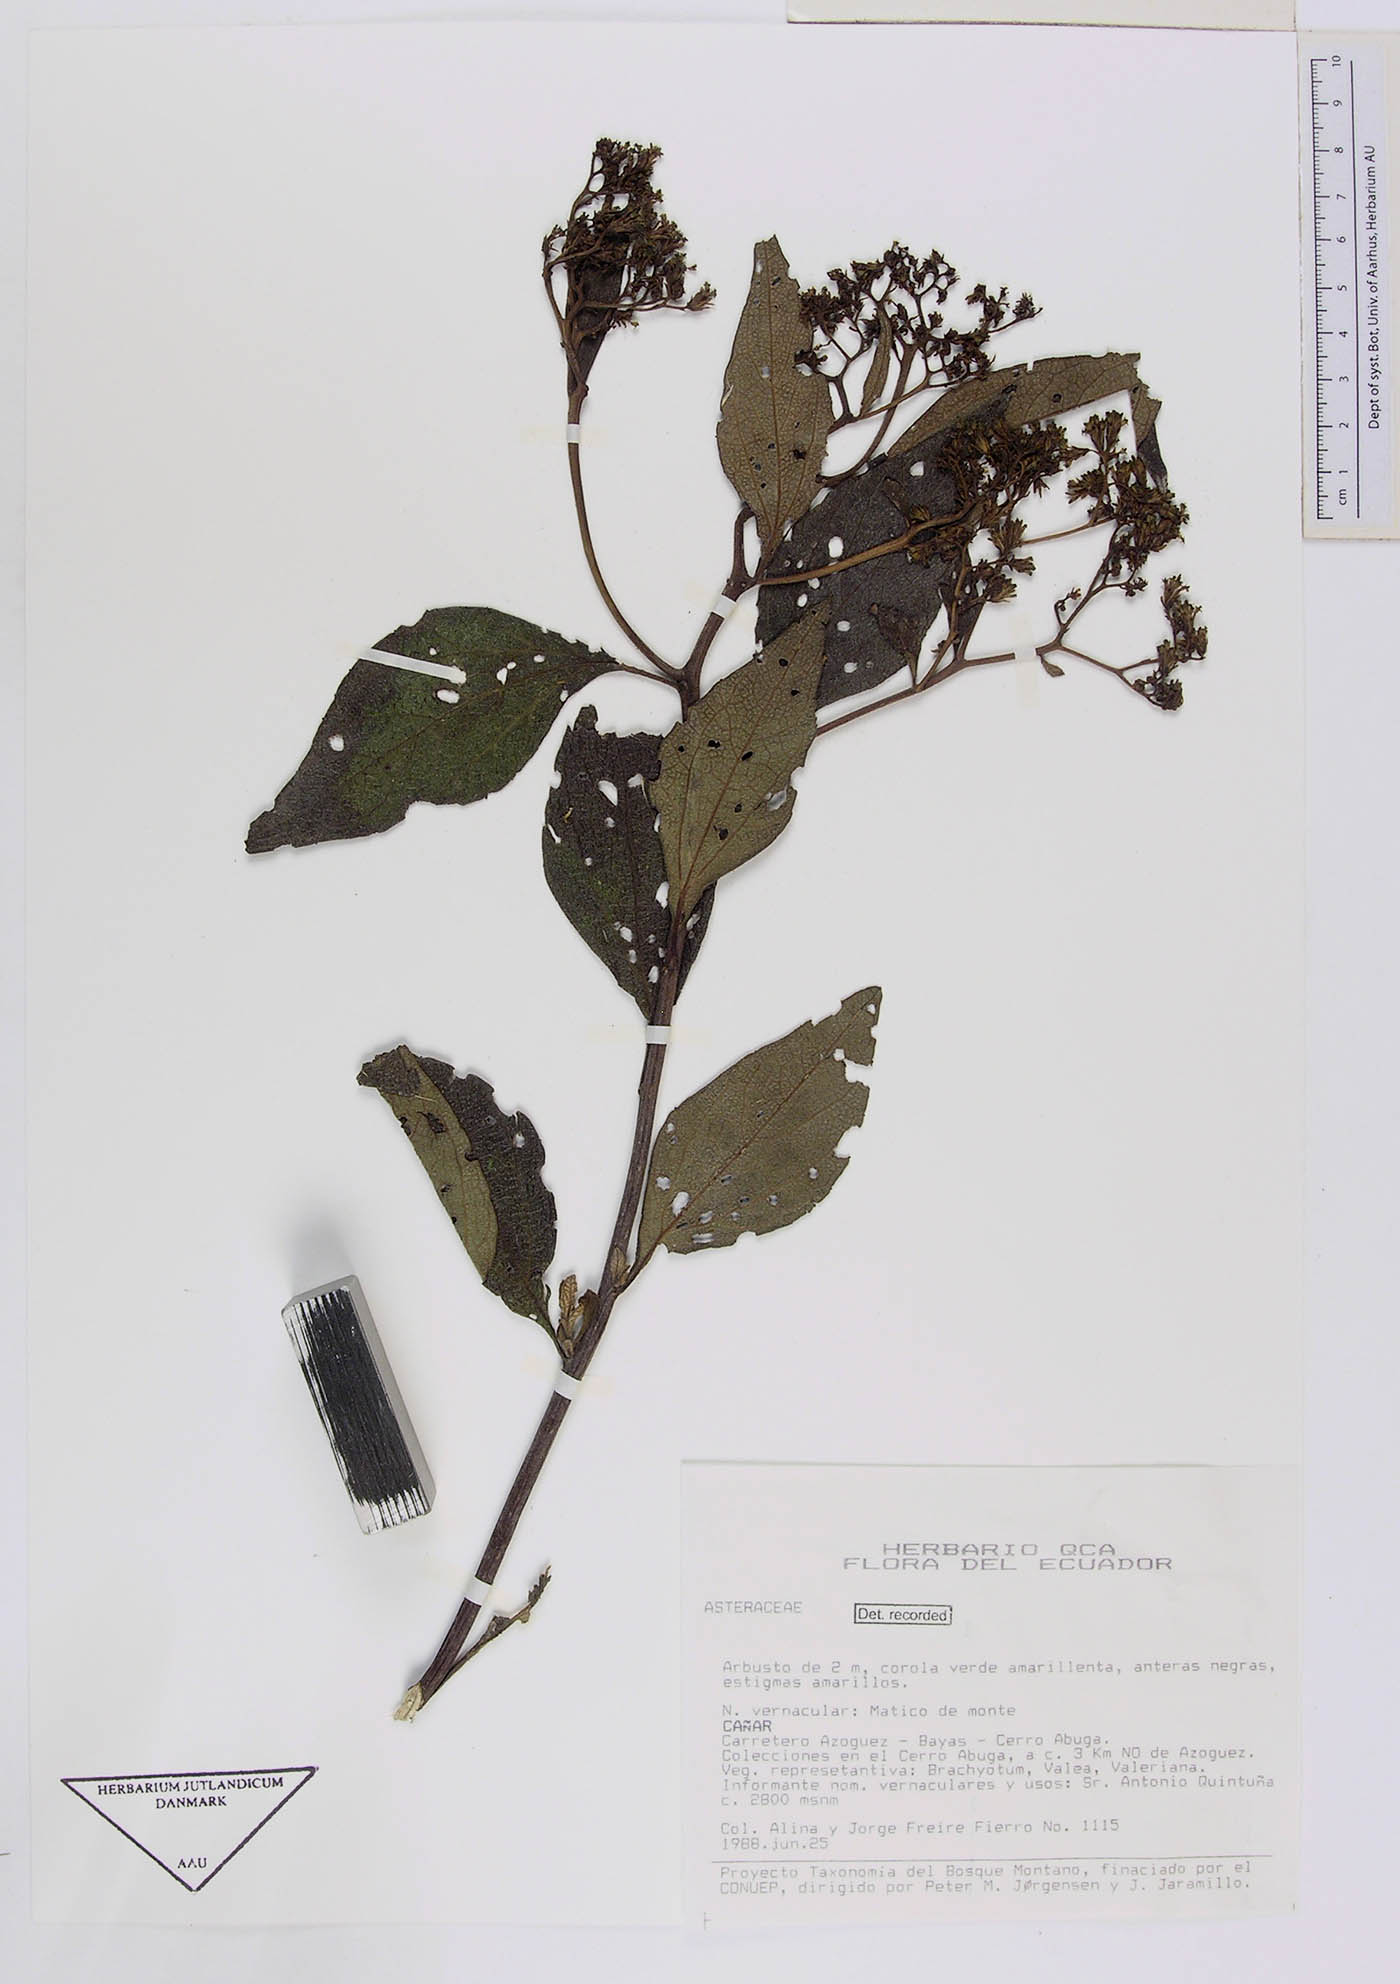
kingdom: Plantae
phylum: Tracheophyta
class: Magnoliopsida
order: Asterales
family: Asteraceae
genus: Monactis
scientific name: Monactis kingii
